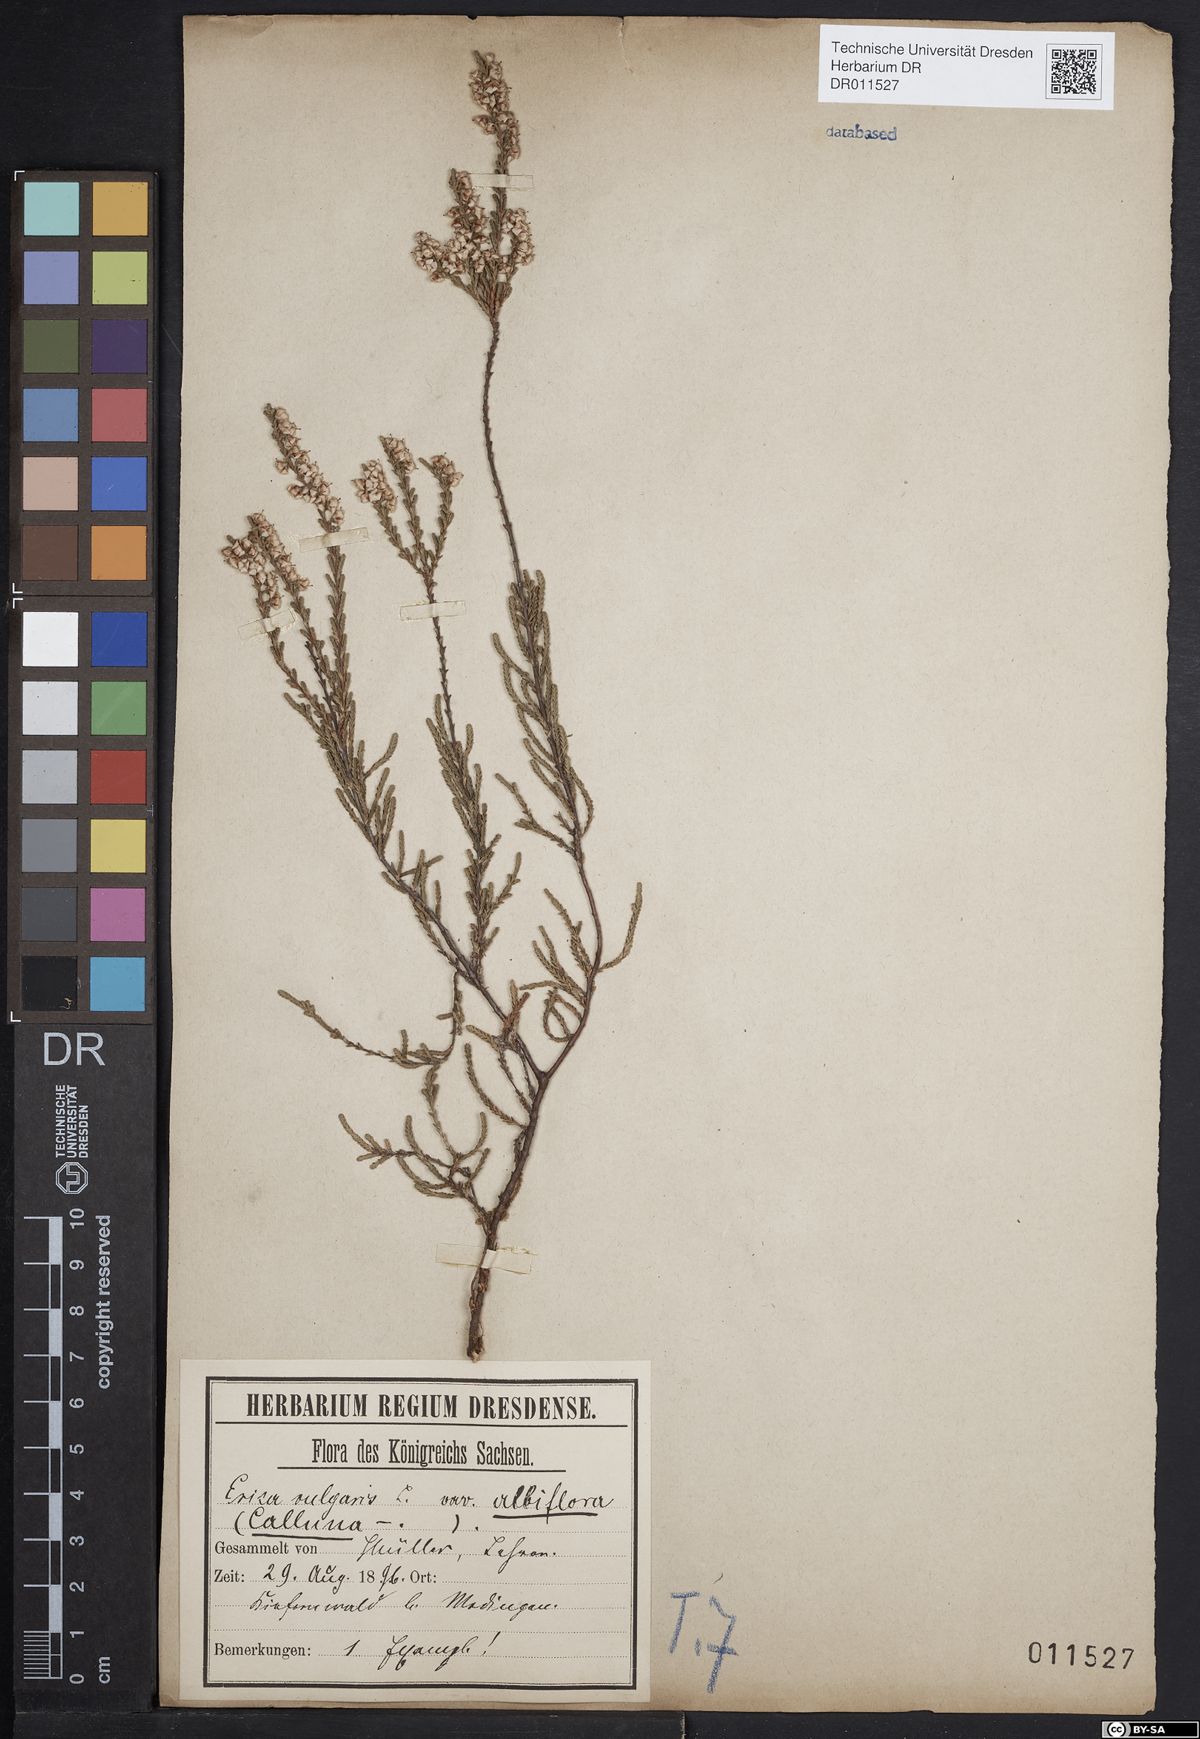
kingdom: Plantae
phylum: Tracheophyta
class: Magnoliopsida
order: Ericales
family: Ericaceae
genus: Calluna
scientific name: Calluna vulgaris
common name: Heather
